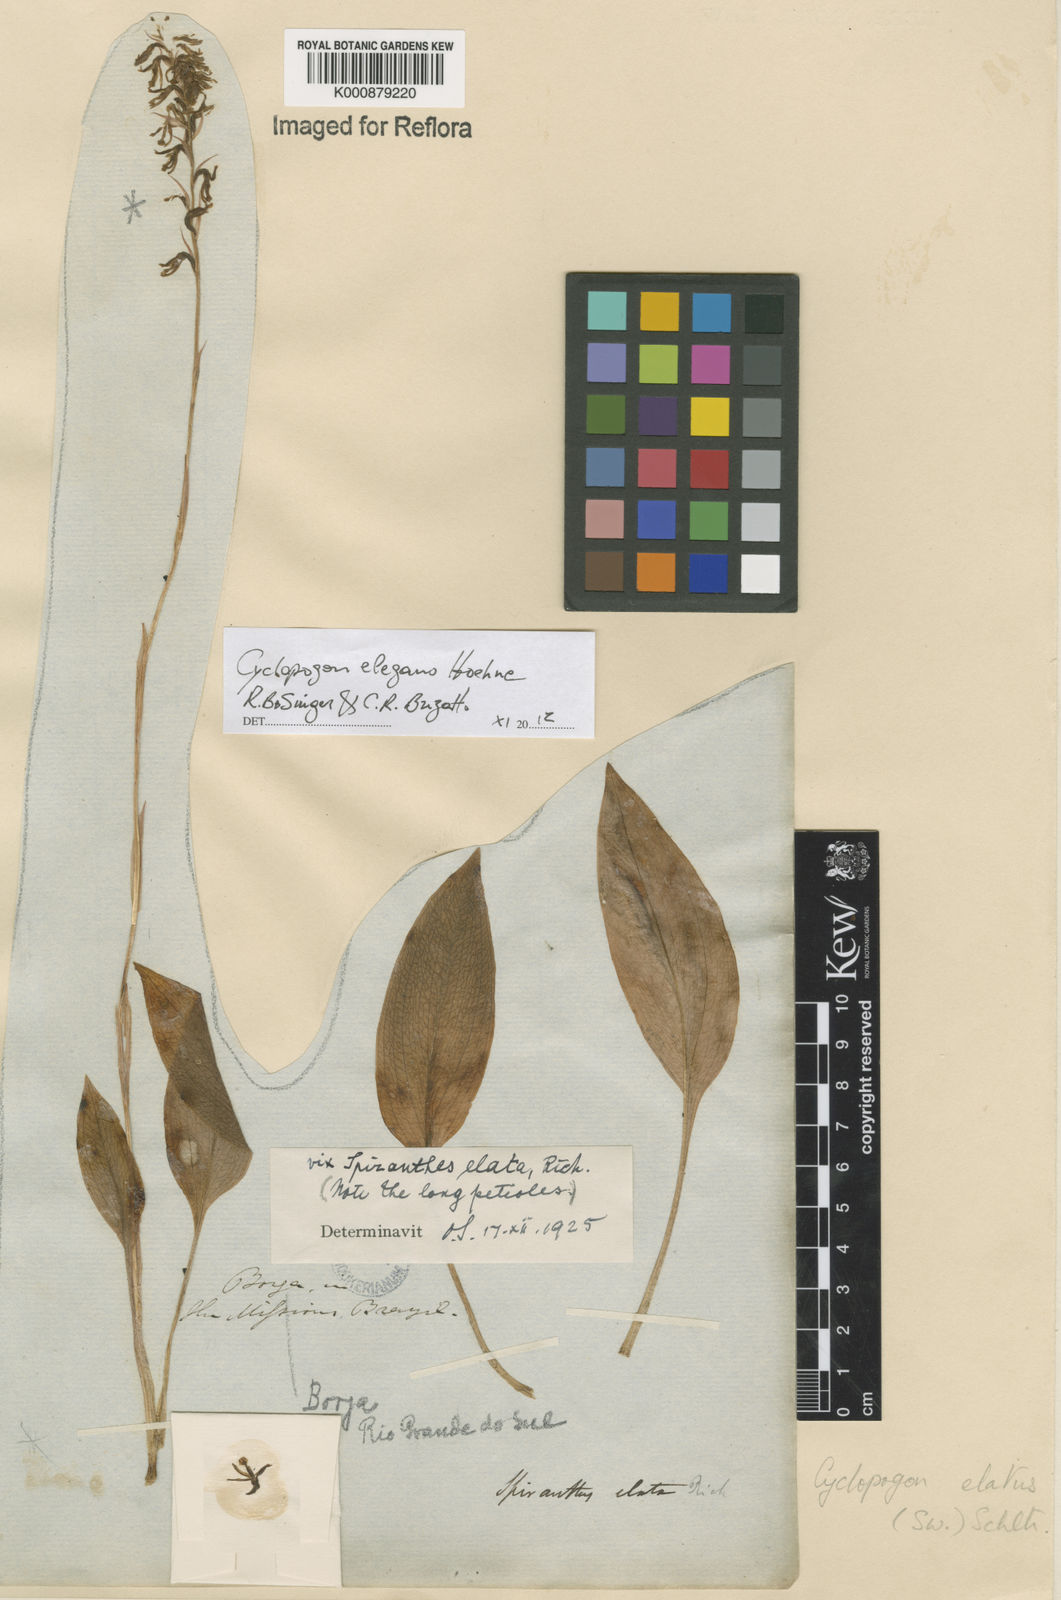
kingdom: Plantae
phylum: Tracheophyta
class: Liliopsida
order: Asparagales
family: Orchidaceae
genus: Cyclopogon
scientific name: Cyclopogon elegans
